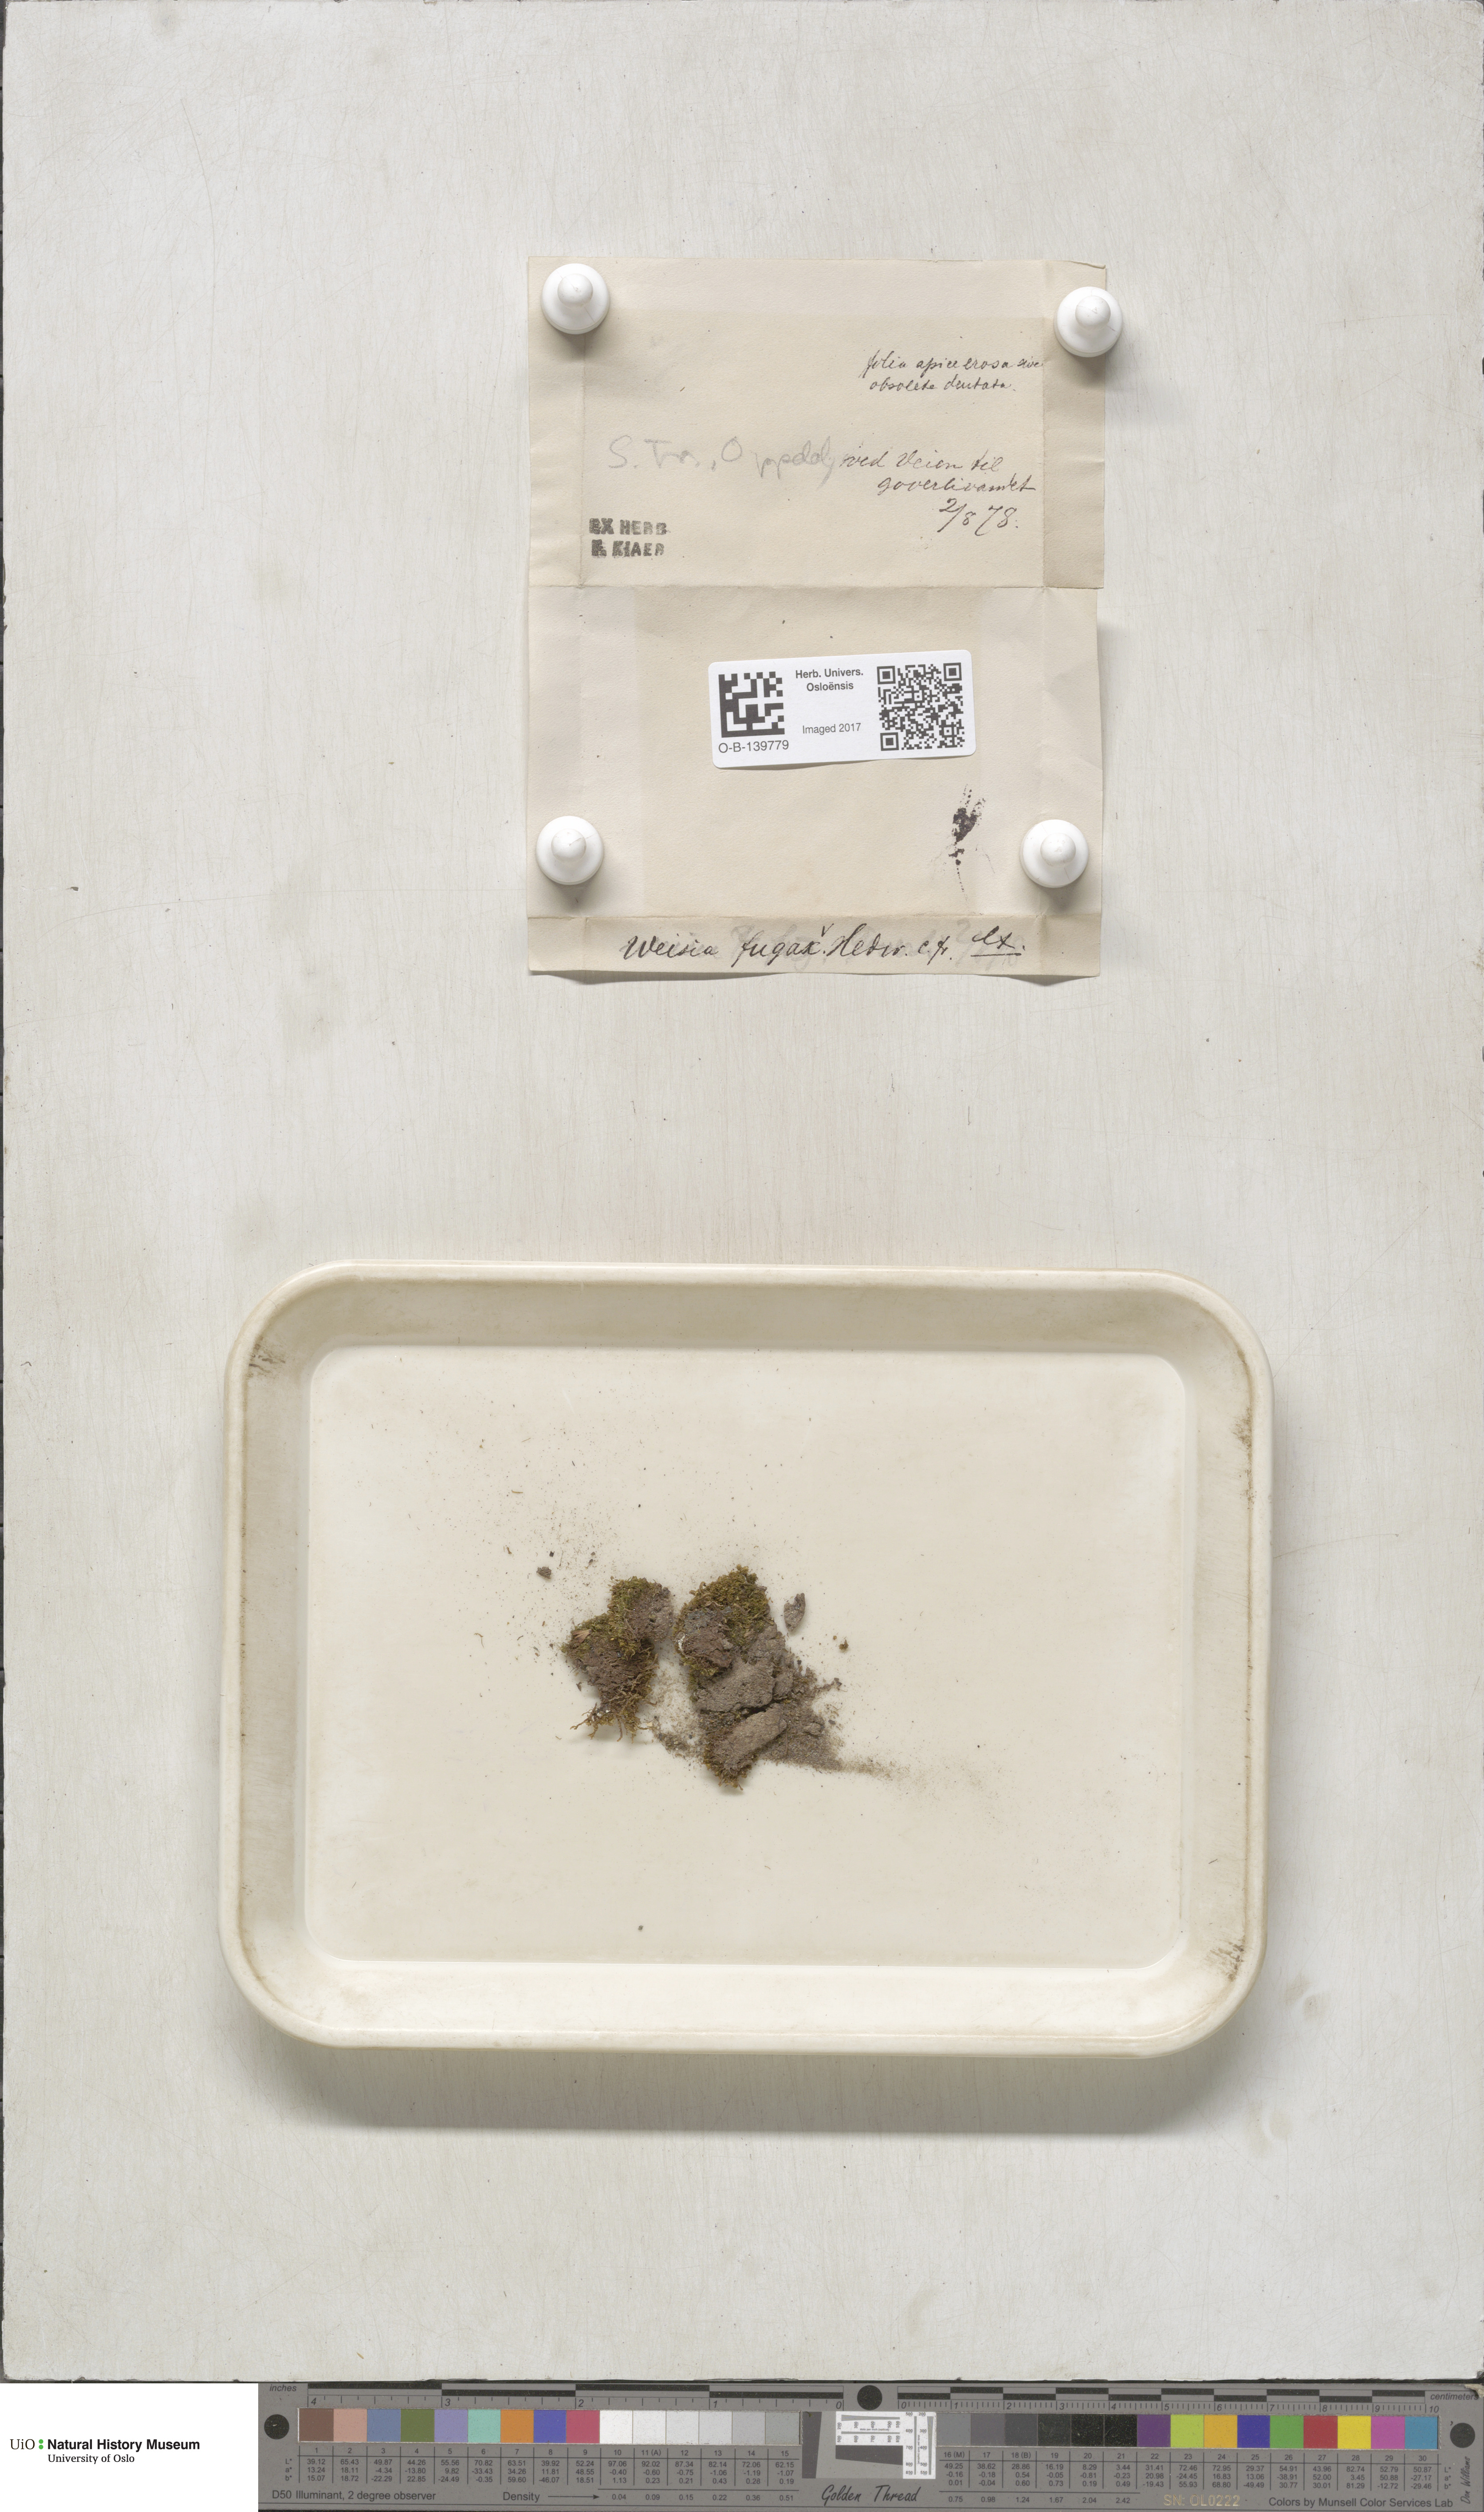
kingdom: Plantae
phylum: Bryophyta
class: Bryopsida
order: Dicranales
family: Rhabdoweisiaceae
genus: Rhabdoweisia
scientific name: Rhabdoweisia fugax
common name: Dwarf streak-moss
